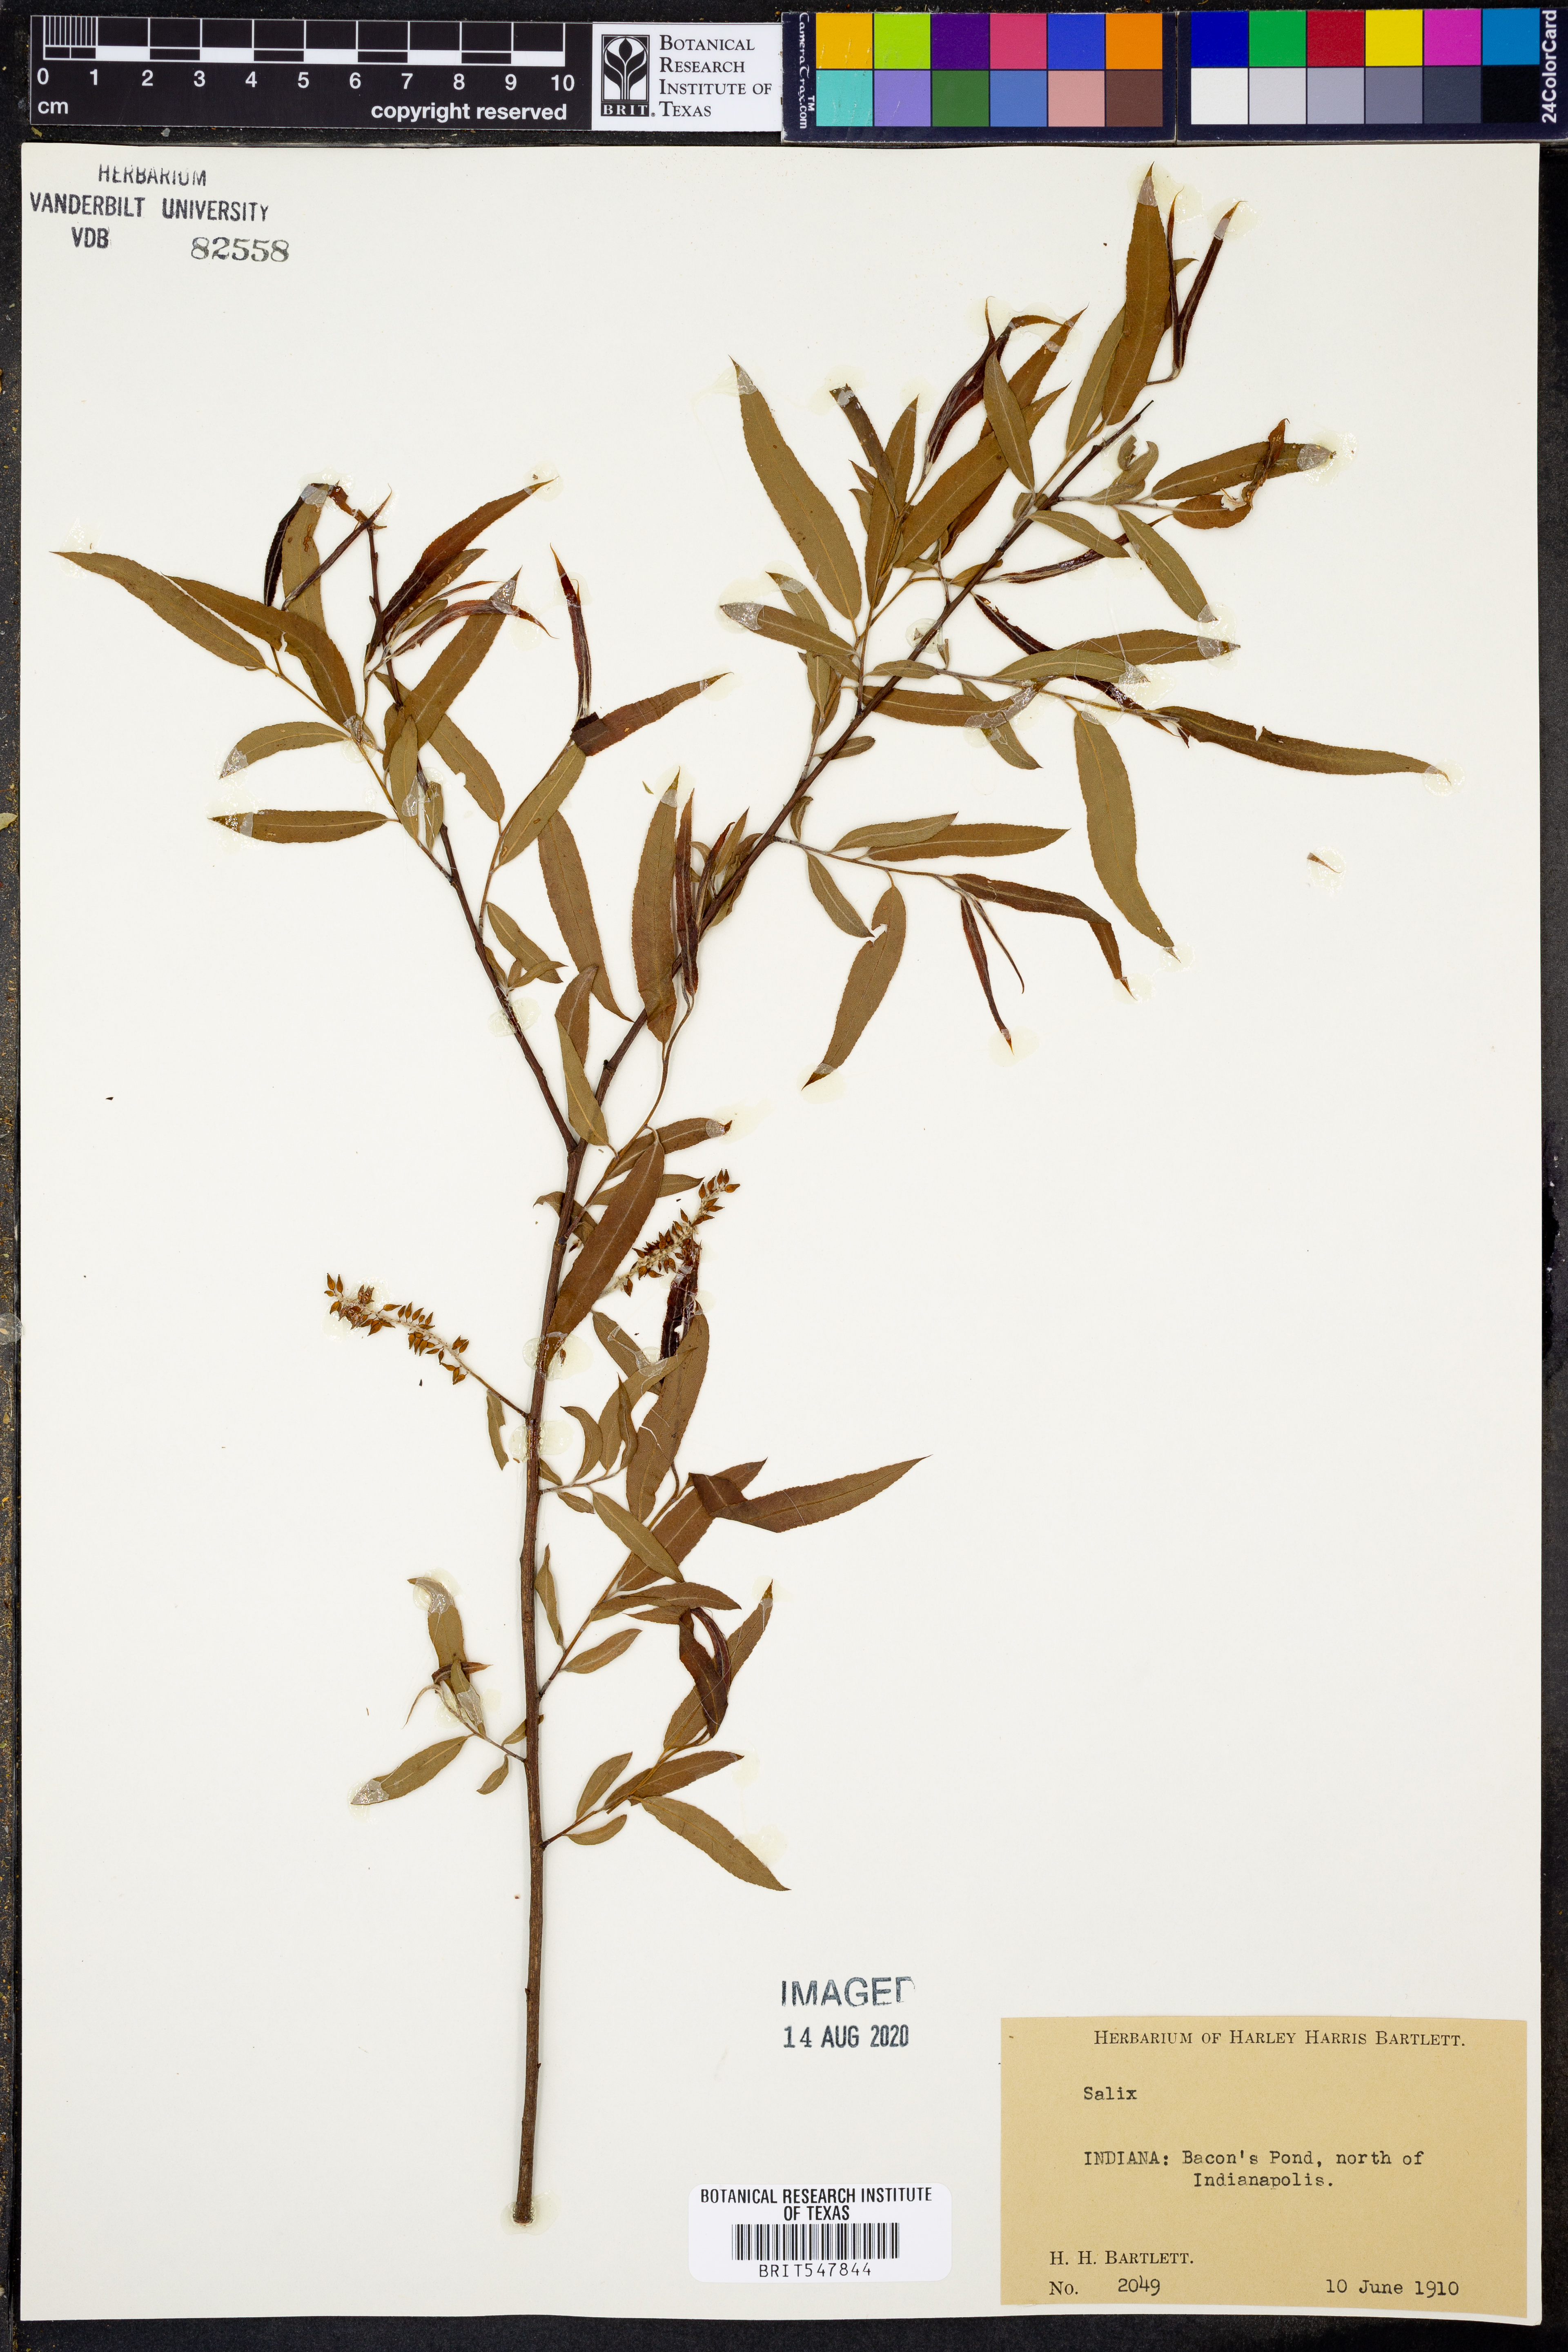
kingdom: Plantae
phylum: Tracheophyta
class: Magnoliopsida
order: Malpighiales
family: Salicaceae
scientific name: Salicaceae
